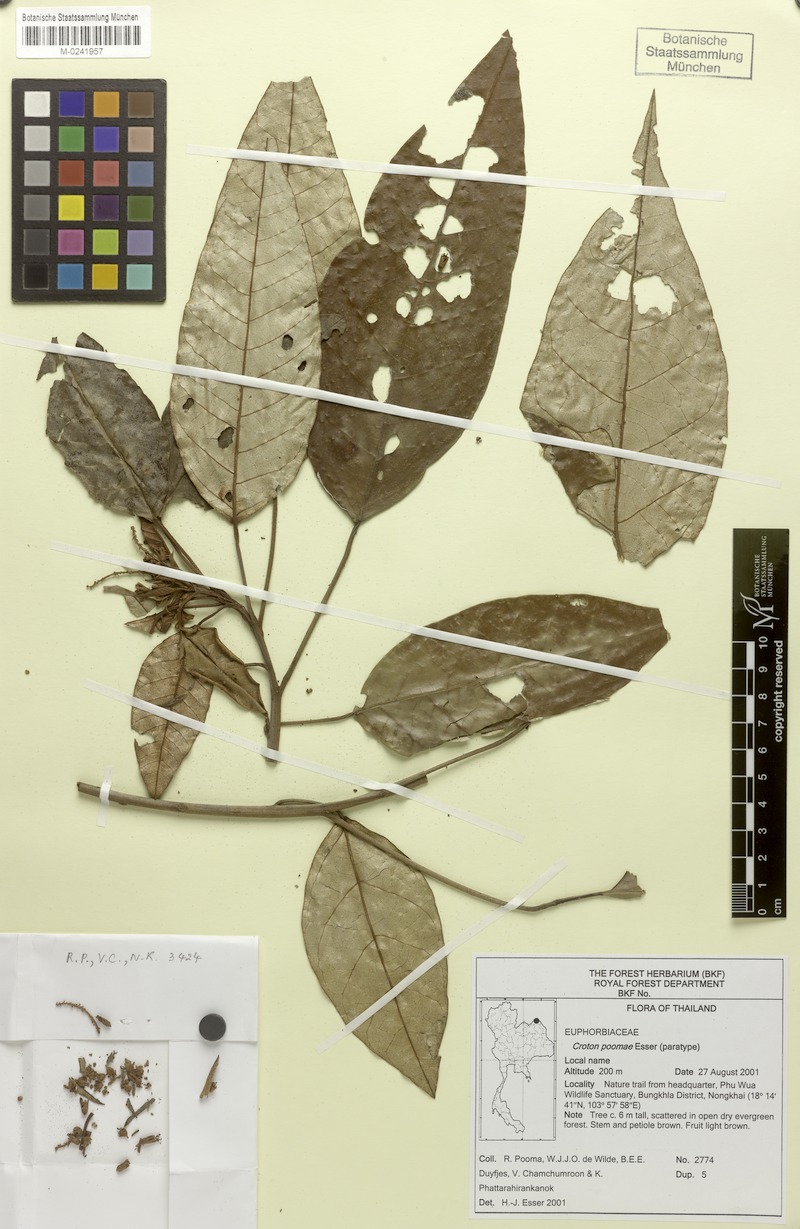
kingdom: Plantae
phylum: Tracheophyta
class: Magnoliopsida
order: Malpighiales
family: Euphorbiaceae
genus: Croton
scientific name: Croton poomae
